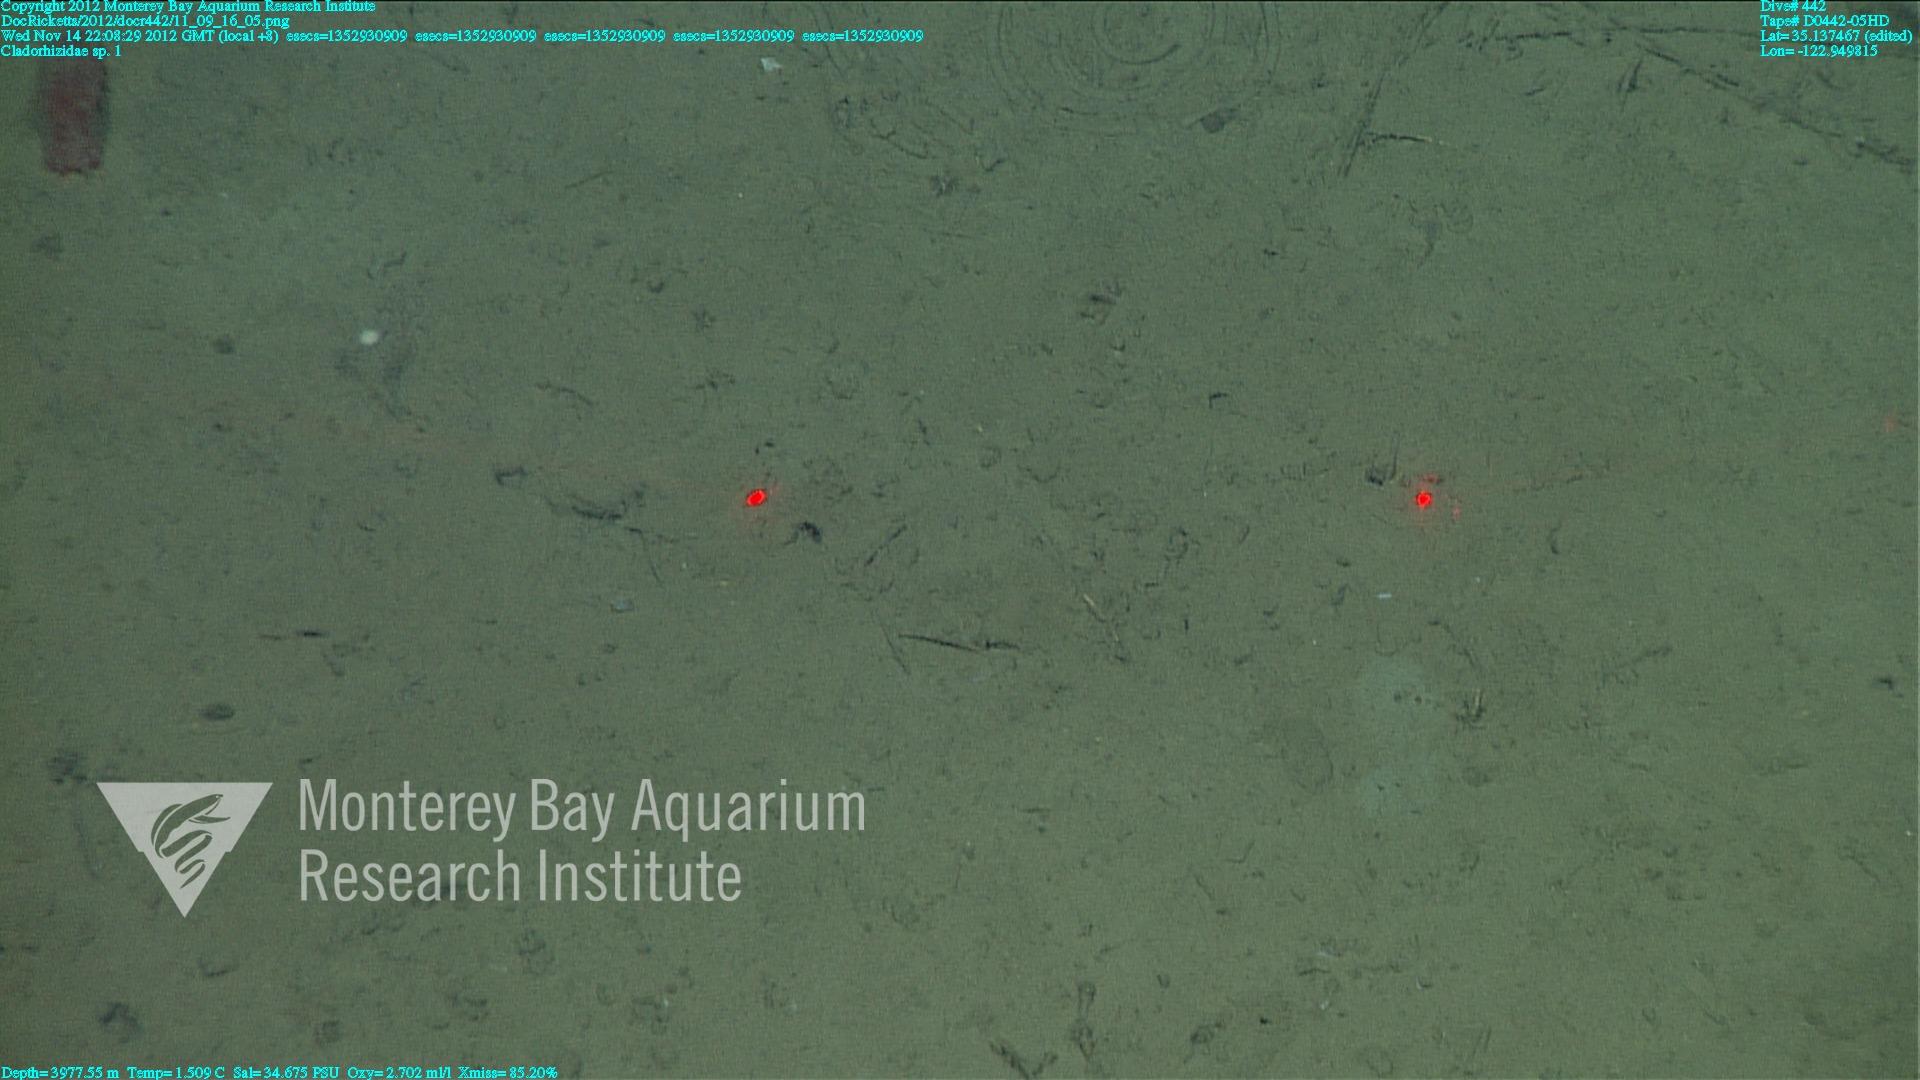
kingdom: Animalia
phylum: Porifera
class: Demospongiae
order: Poecilosclerida
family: Cladorhizidae
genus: Cladorhiza
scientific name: Cladorhiza
